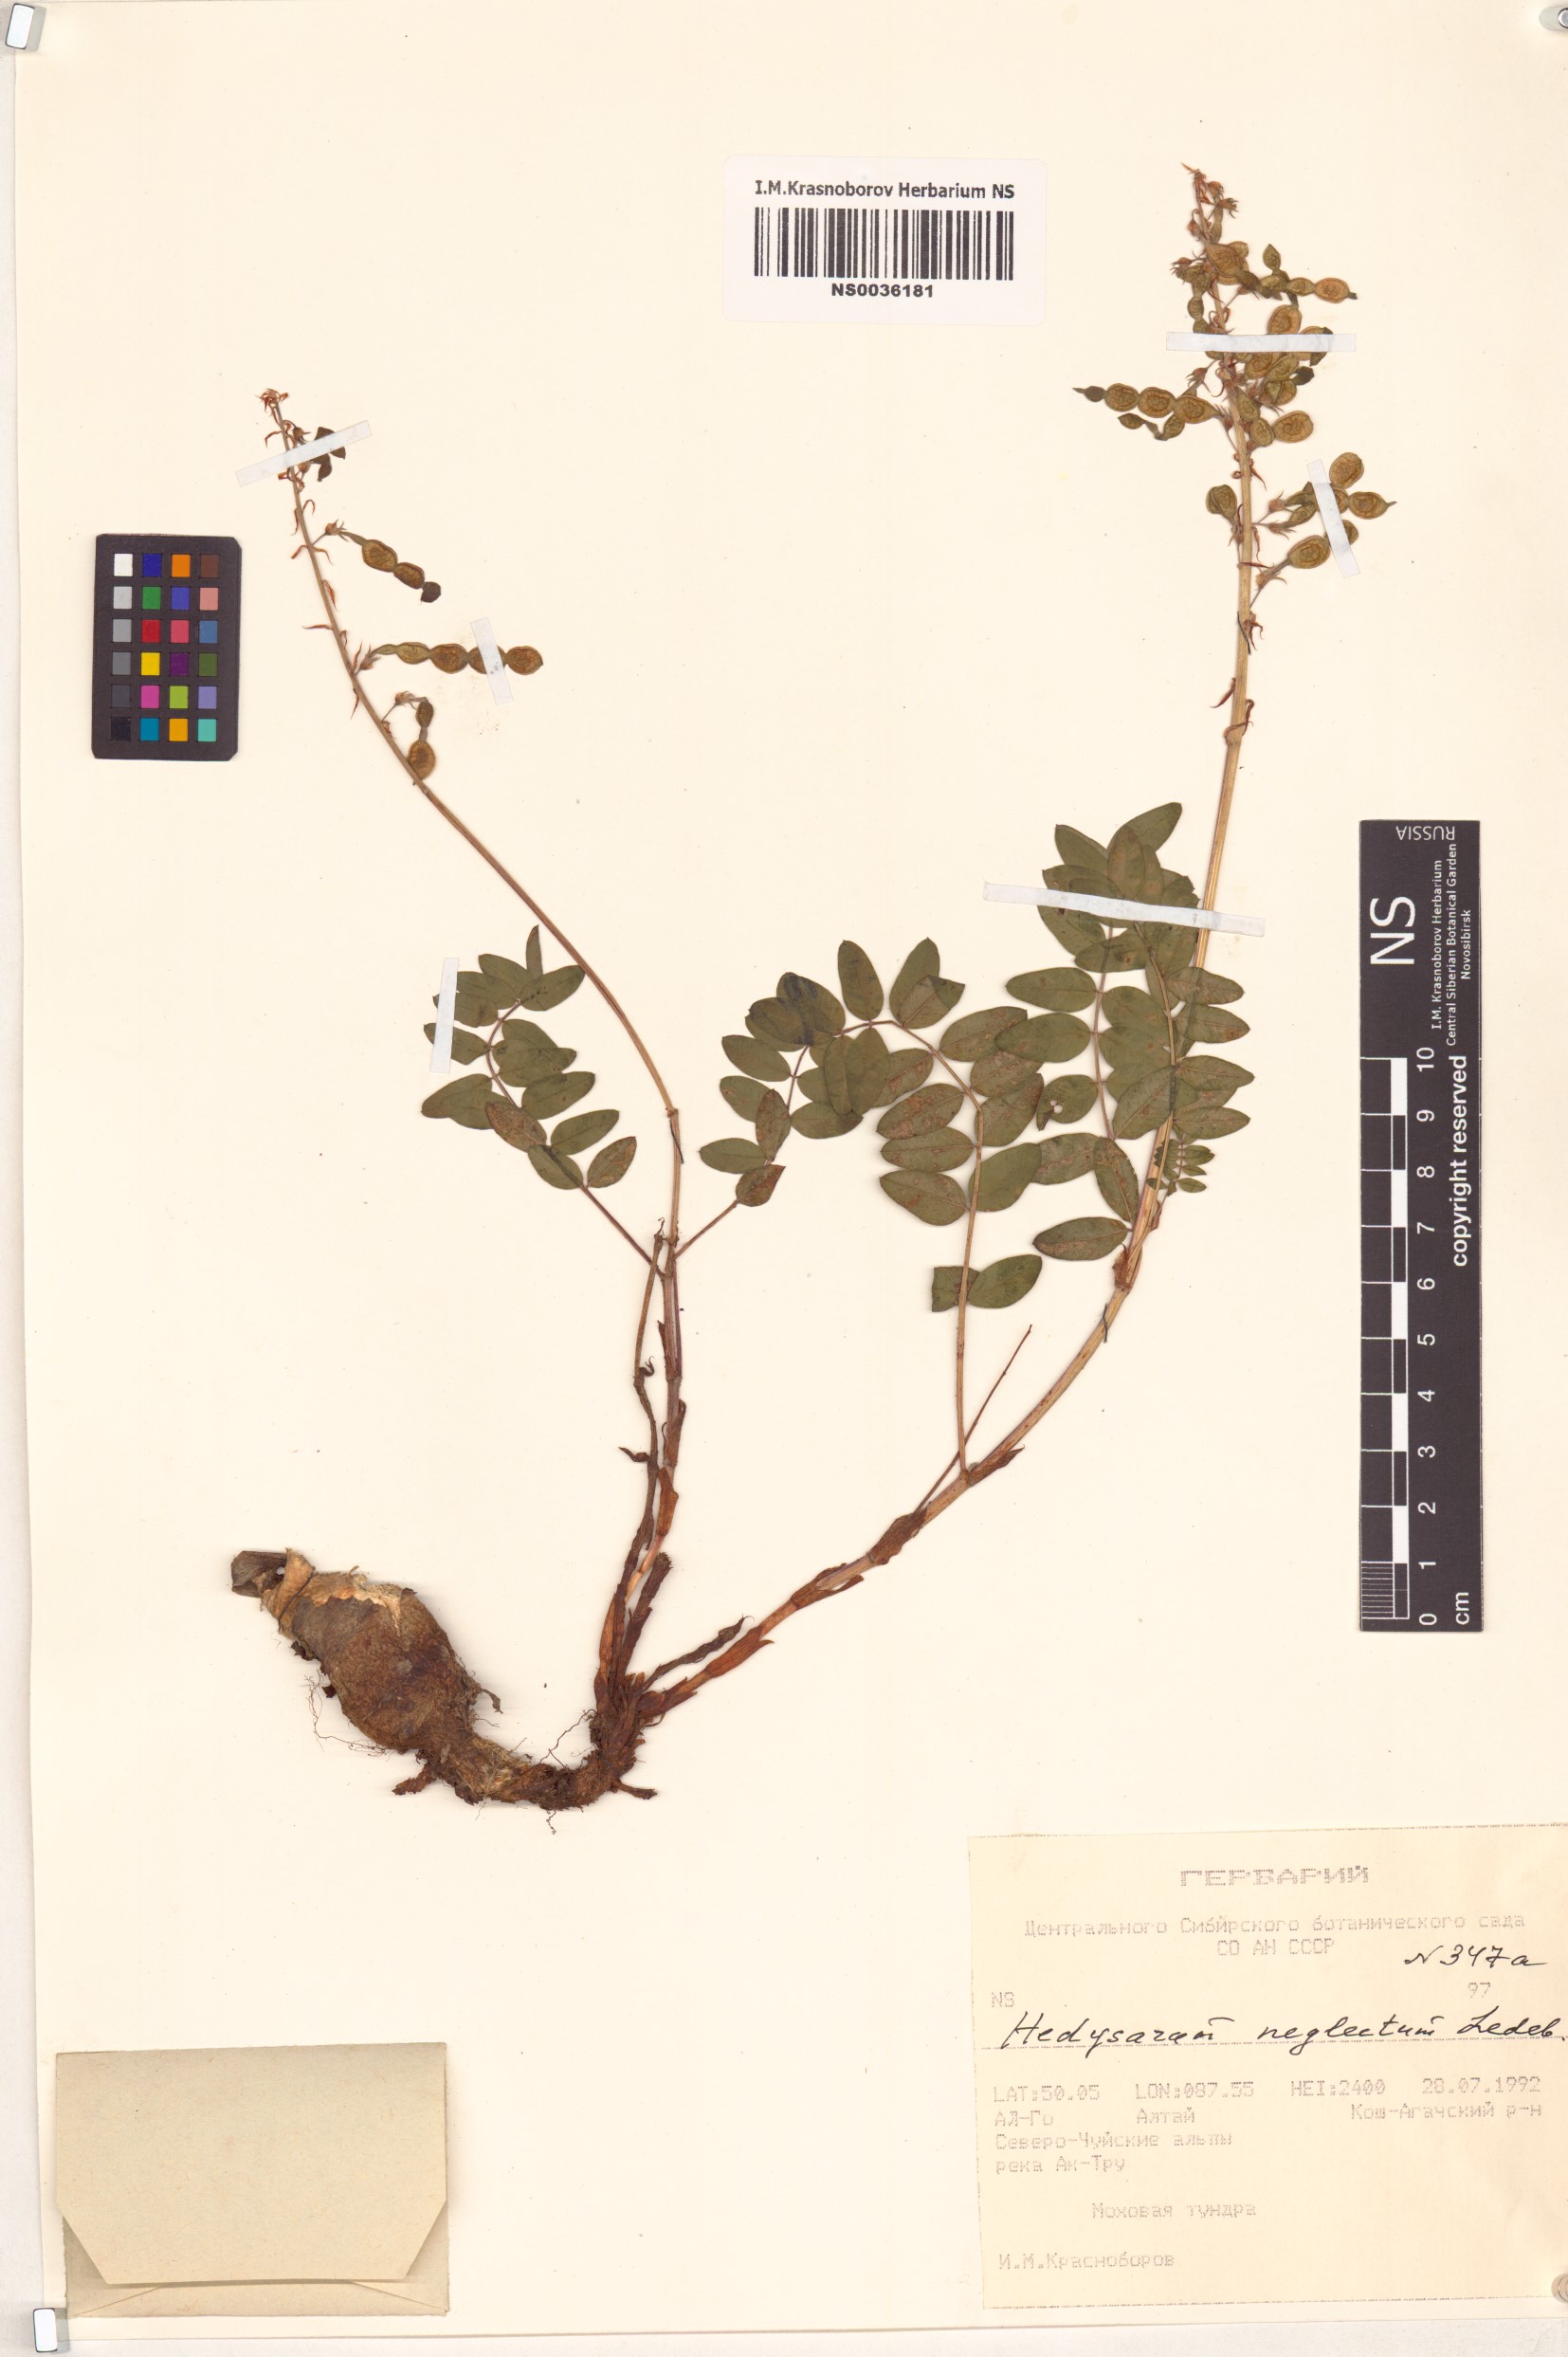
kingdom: Plantae
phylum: Tracheophyta
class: Magnoliopsida
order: Fabales
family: Fabaceae
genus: Hedysarum
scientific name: Hedysarum neglectum
